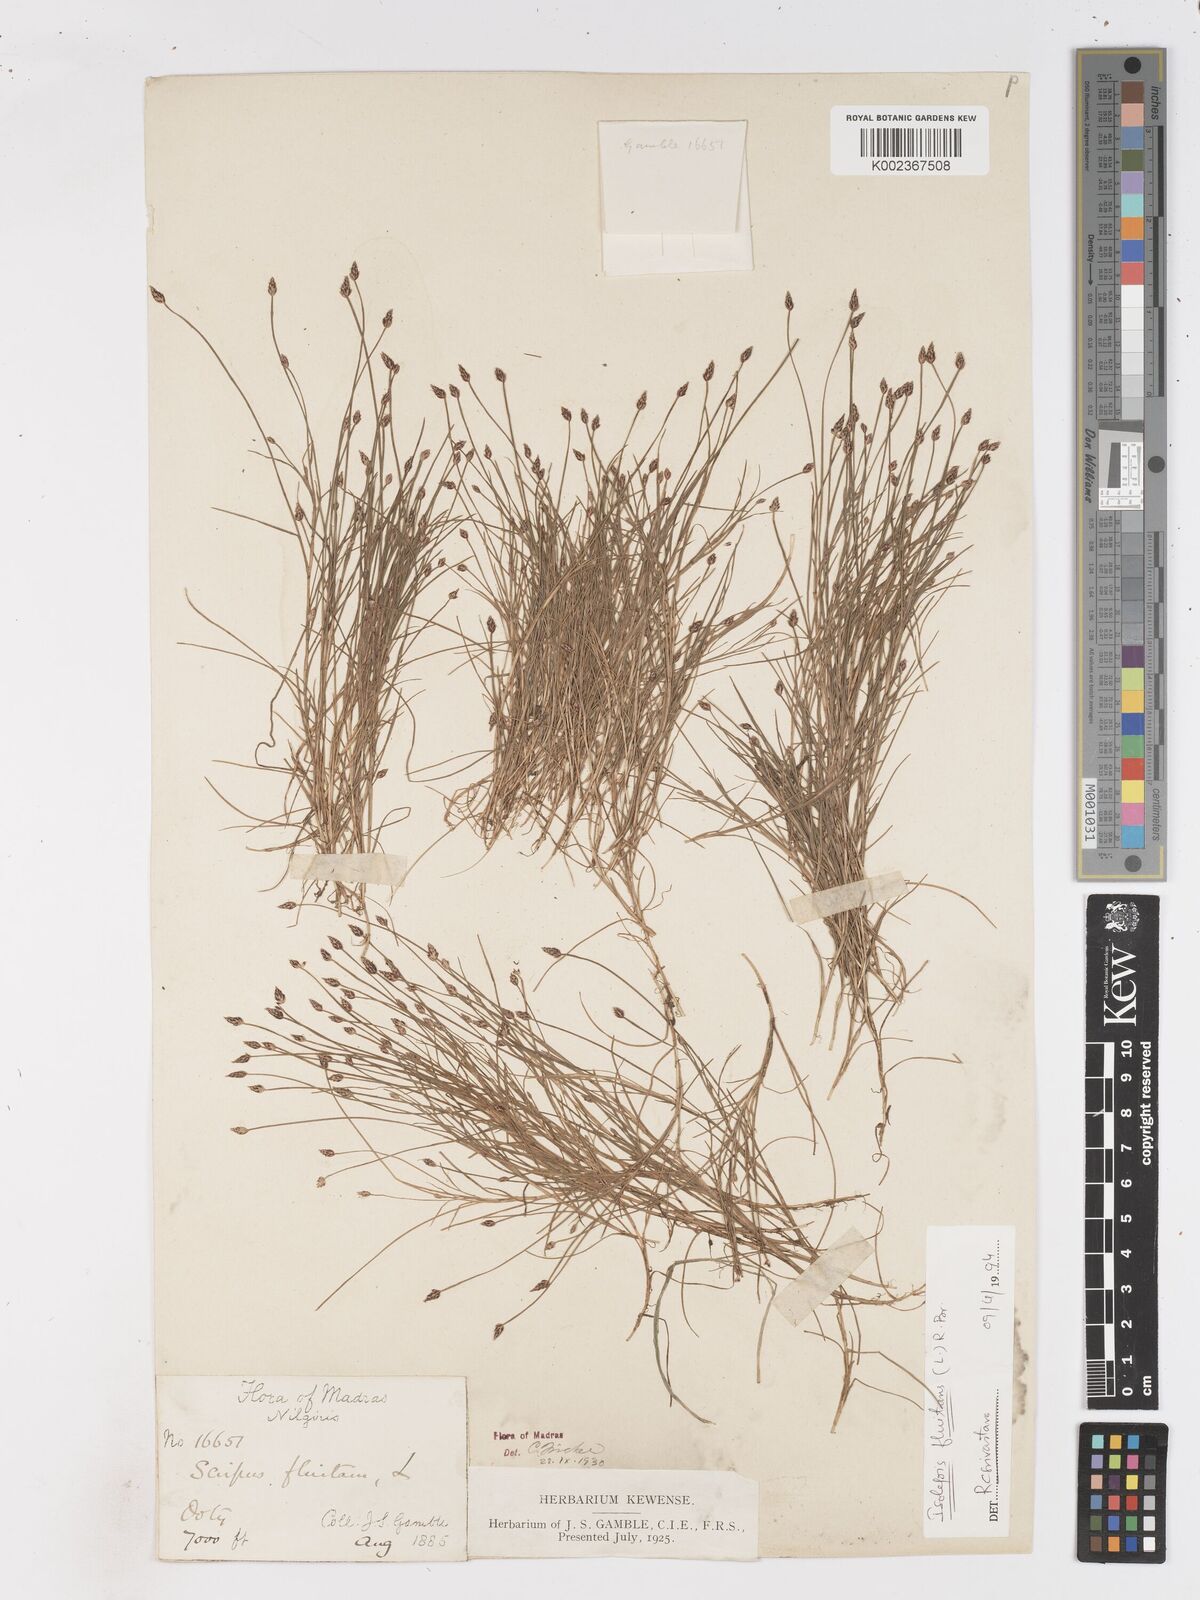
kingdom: Plantae
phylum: Tracheophyta
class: Liliopsida
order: Poales
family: Cyperaceae
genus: Isolepis
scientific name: Isolepis fluitans
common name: Floating club-rush
